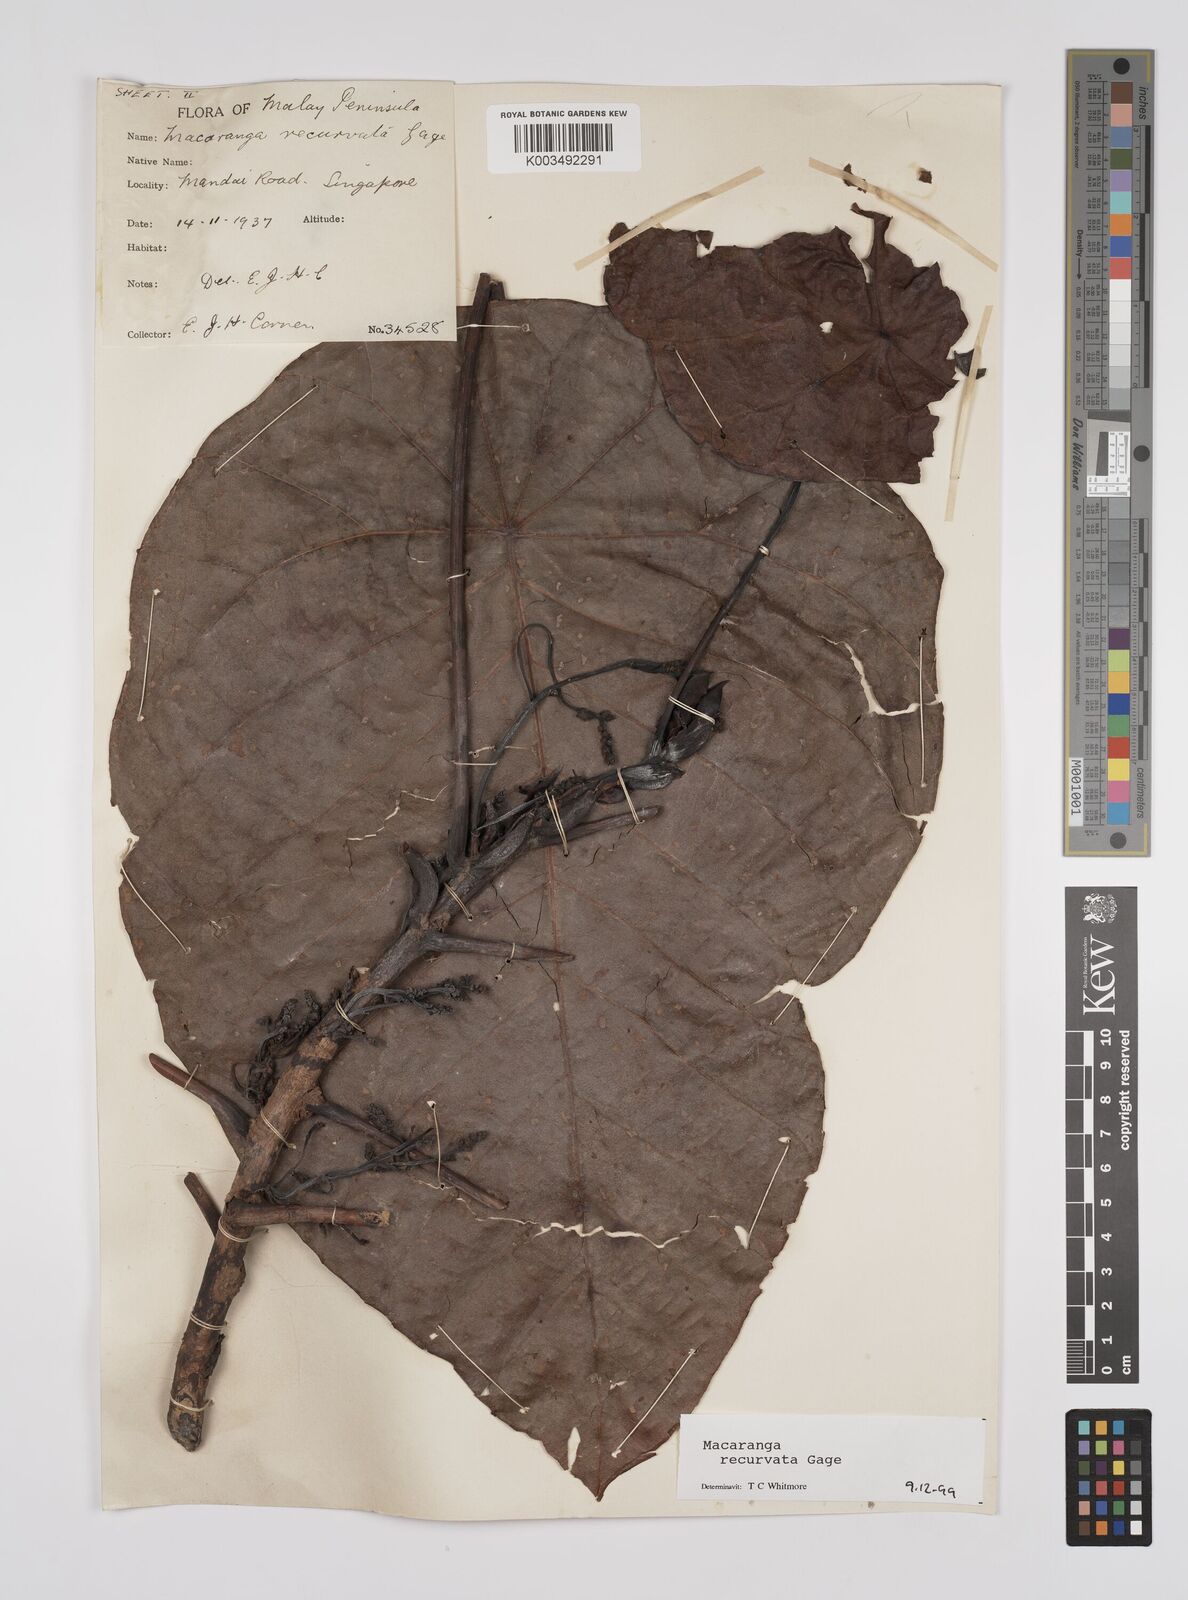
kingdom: Plantae
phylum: Tracheophyta
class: Magnoliopsida
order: Malpighiales
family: Euphorbiaceae
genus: Macaranga
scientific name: Macaranga recurvata
